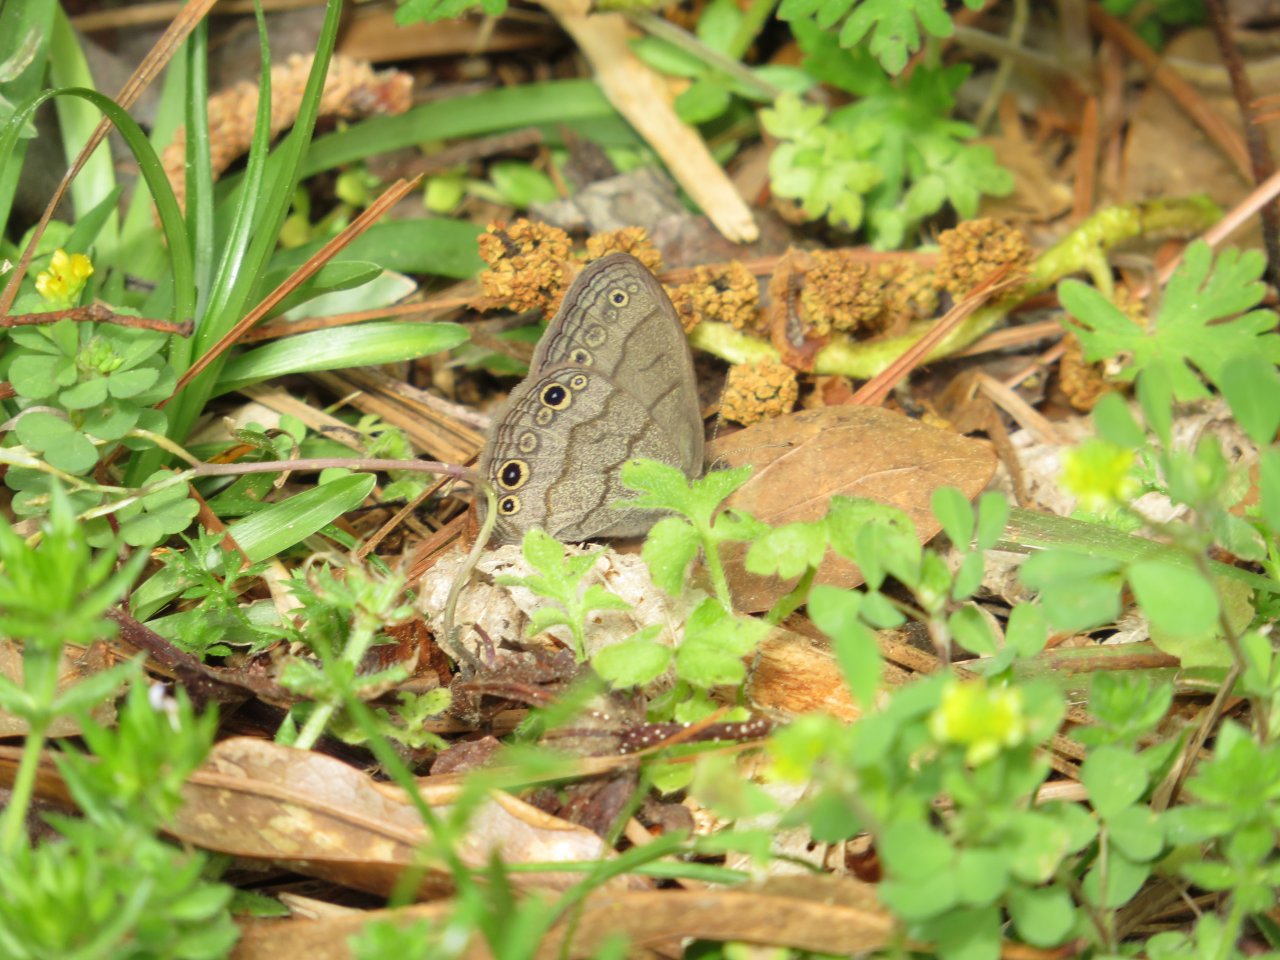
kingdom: Animalia
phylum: Arthropoda
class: Insecta
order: Lepidoptera
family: Nymphalidae
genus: Hermeuptychia
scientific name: Hermeuptychia hermes
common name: Carolina Satyr
